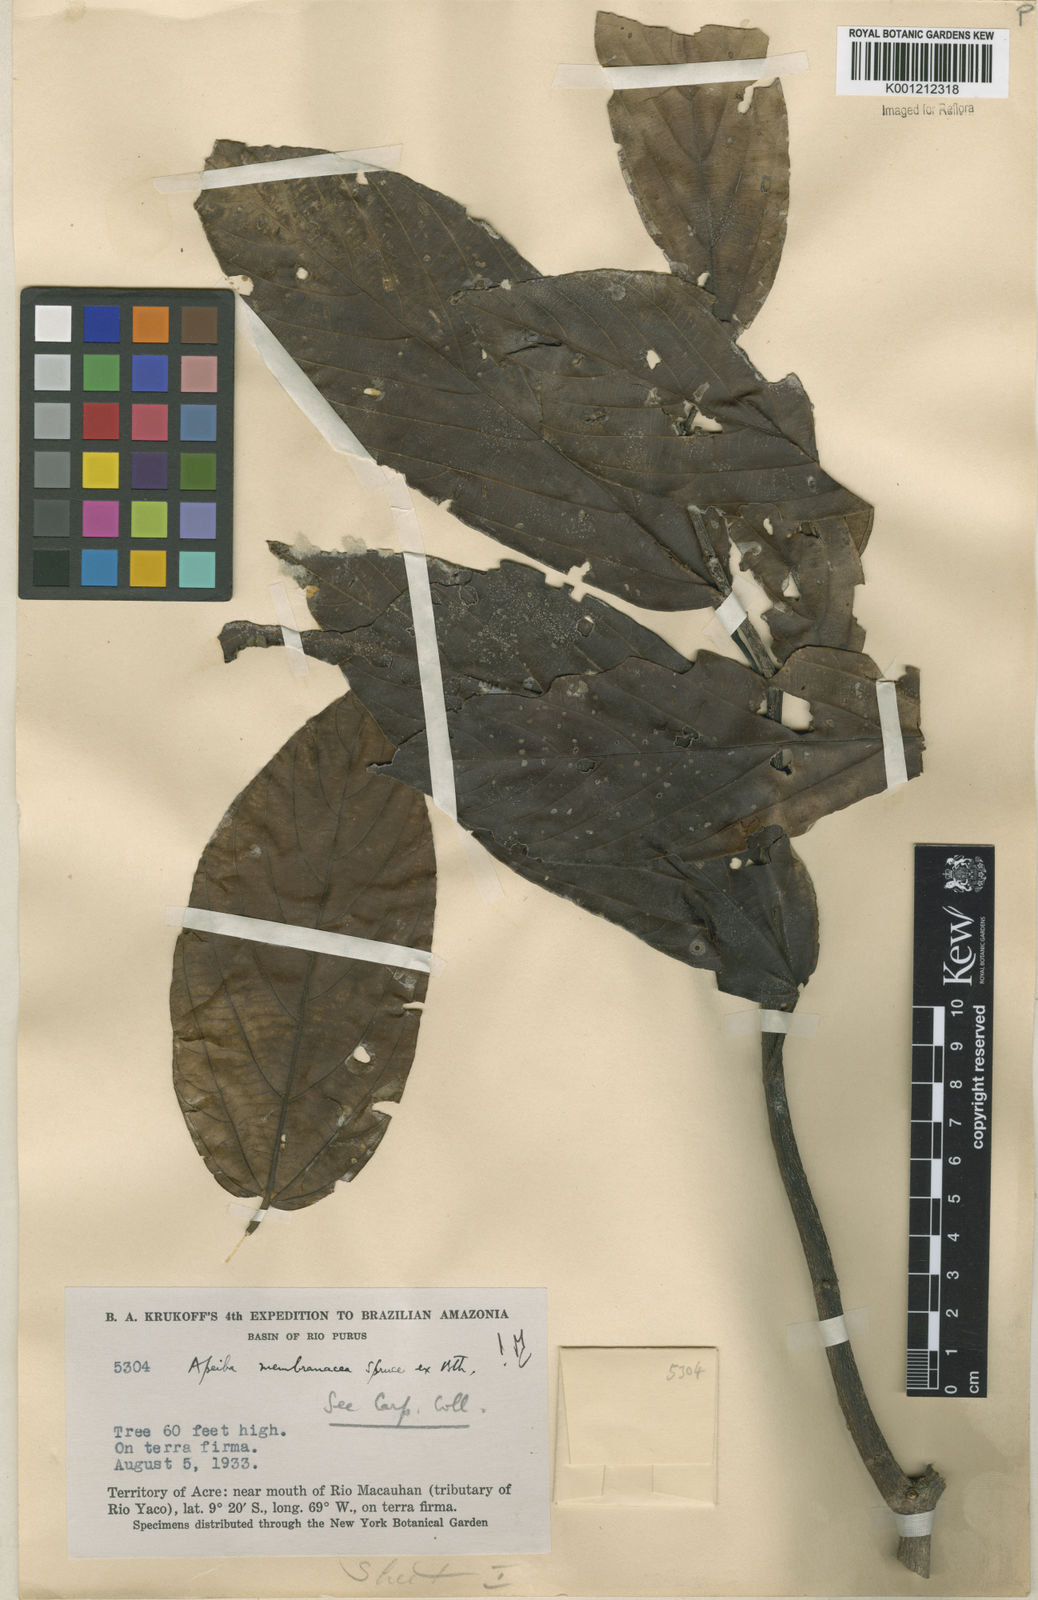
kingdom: Plantae
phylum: Tracheophyta
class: Magnoliopsida
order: Malvales
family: Malvaceae
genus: Apeiba
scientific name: Apeiba membranacea
